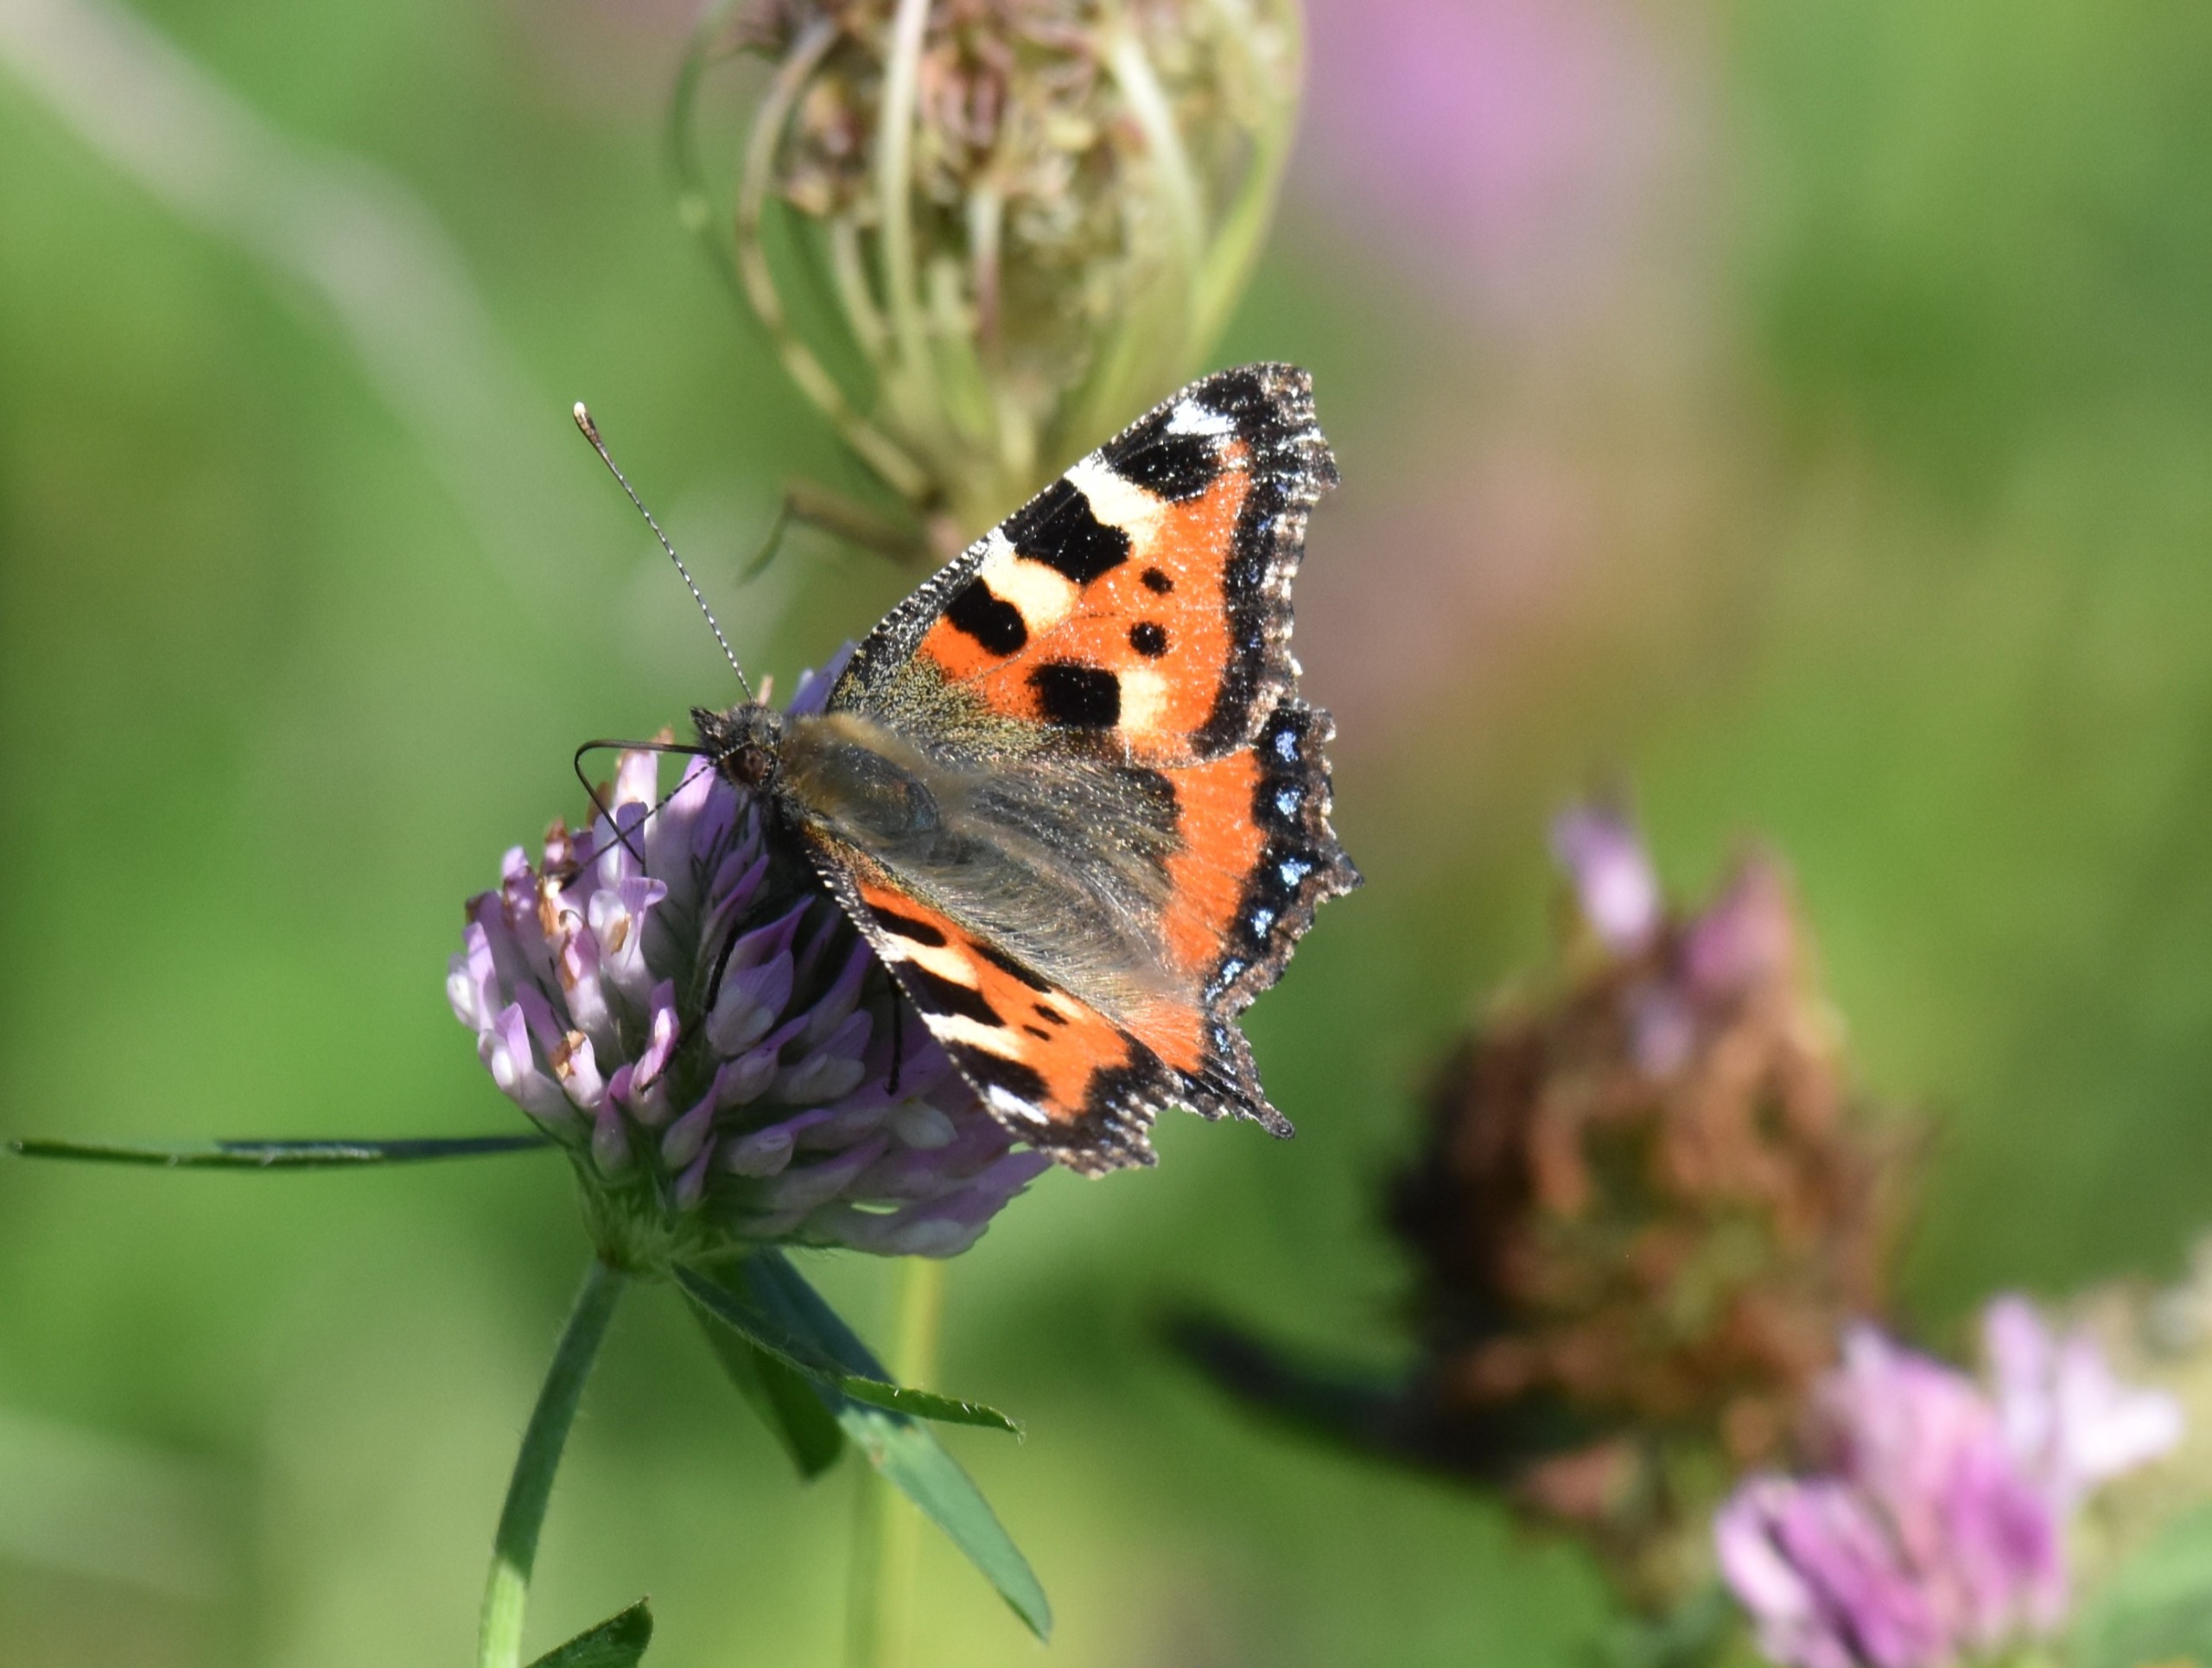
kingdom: Animalia
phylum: Arthropoda
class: Insecta
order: Lepidoptera
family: Nymphalidae
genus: Aglais
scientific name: Aglais urticae
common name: Nældens takvinge
